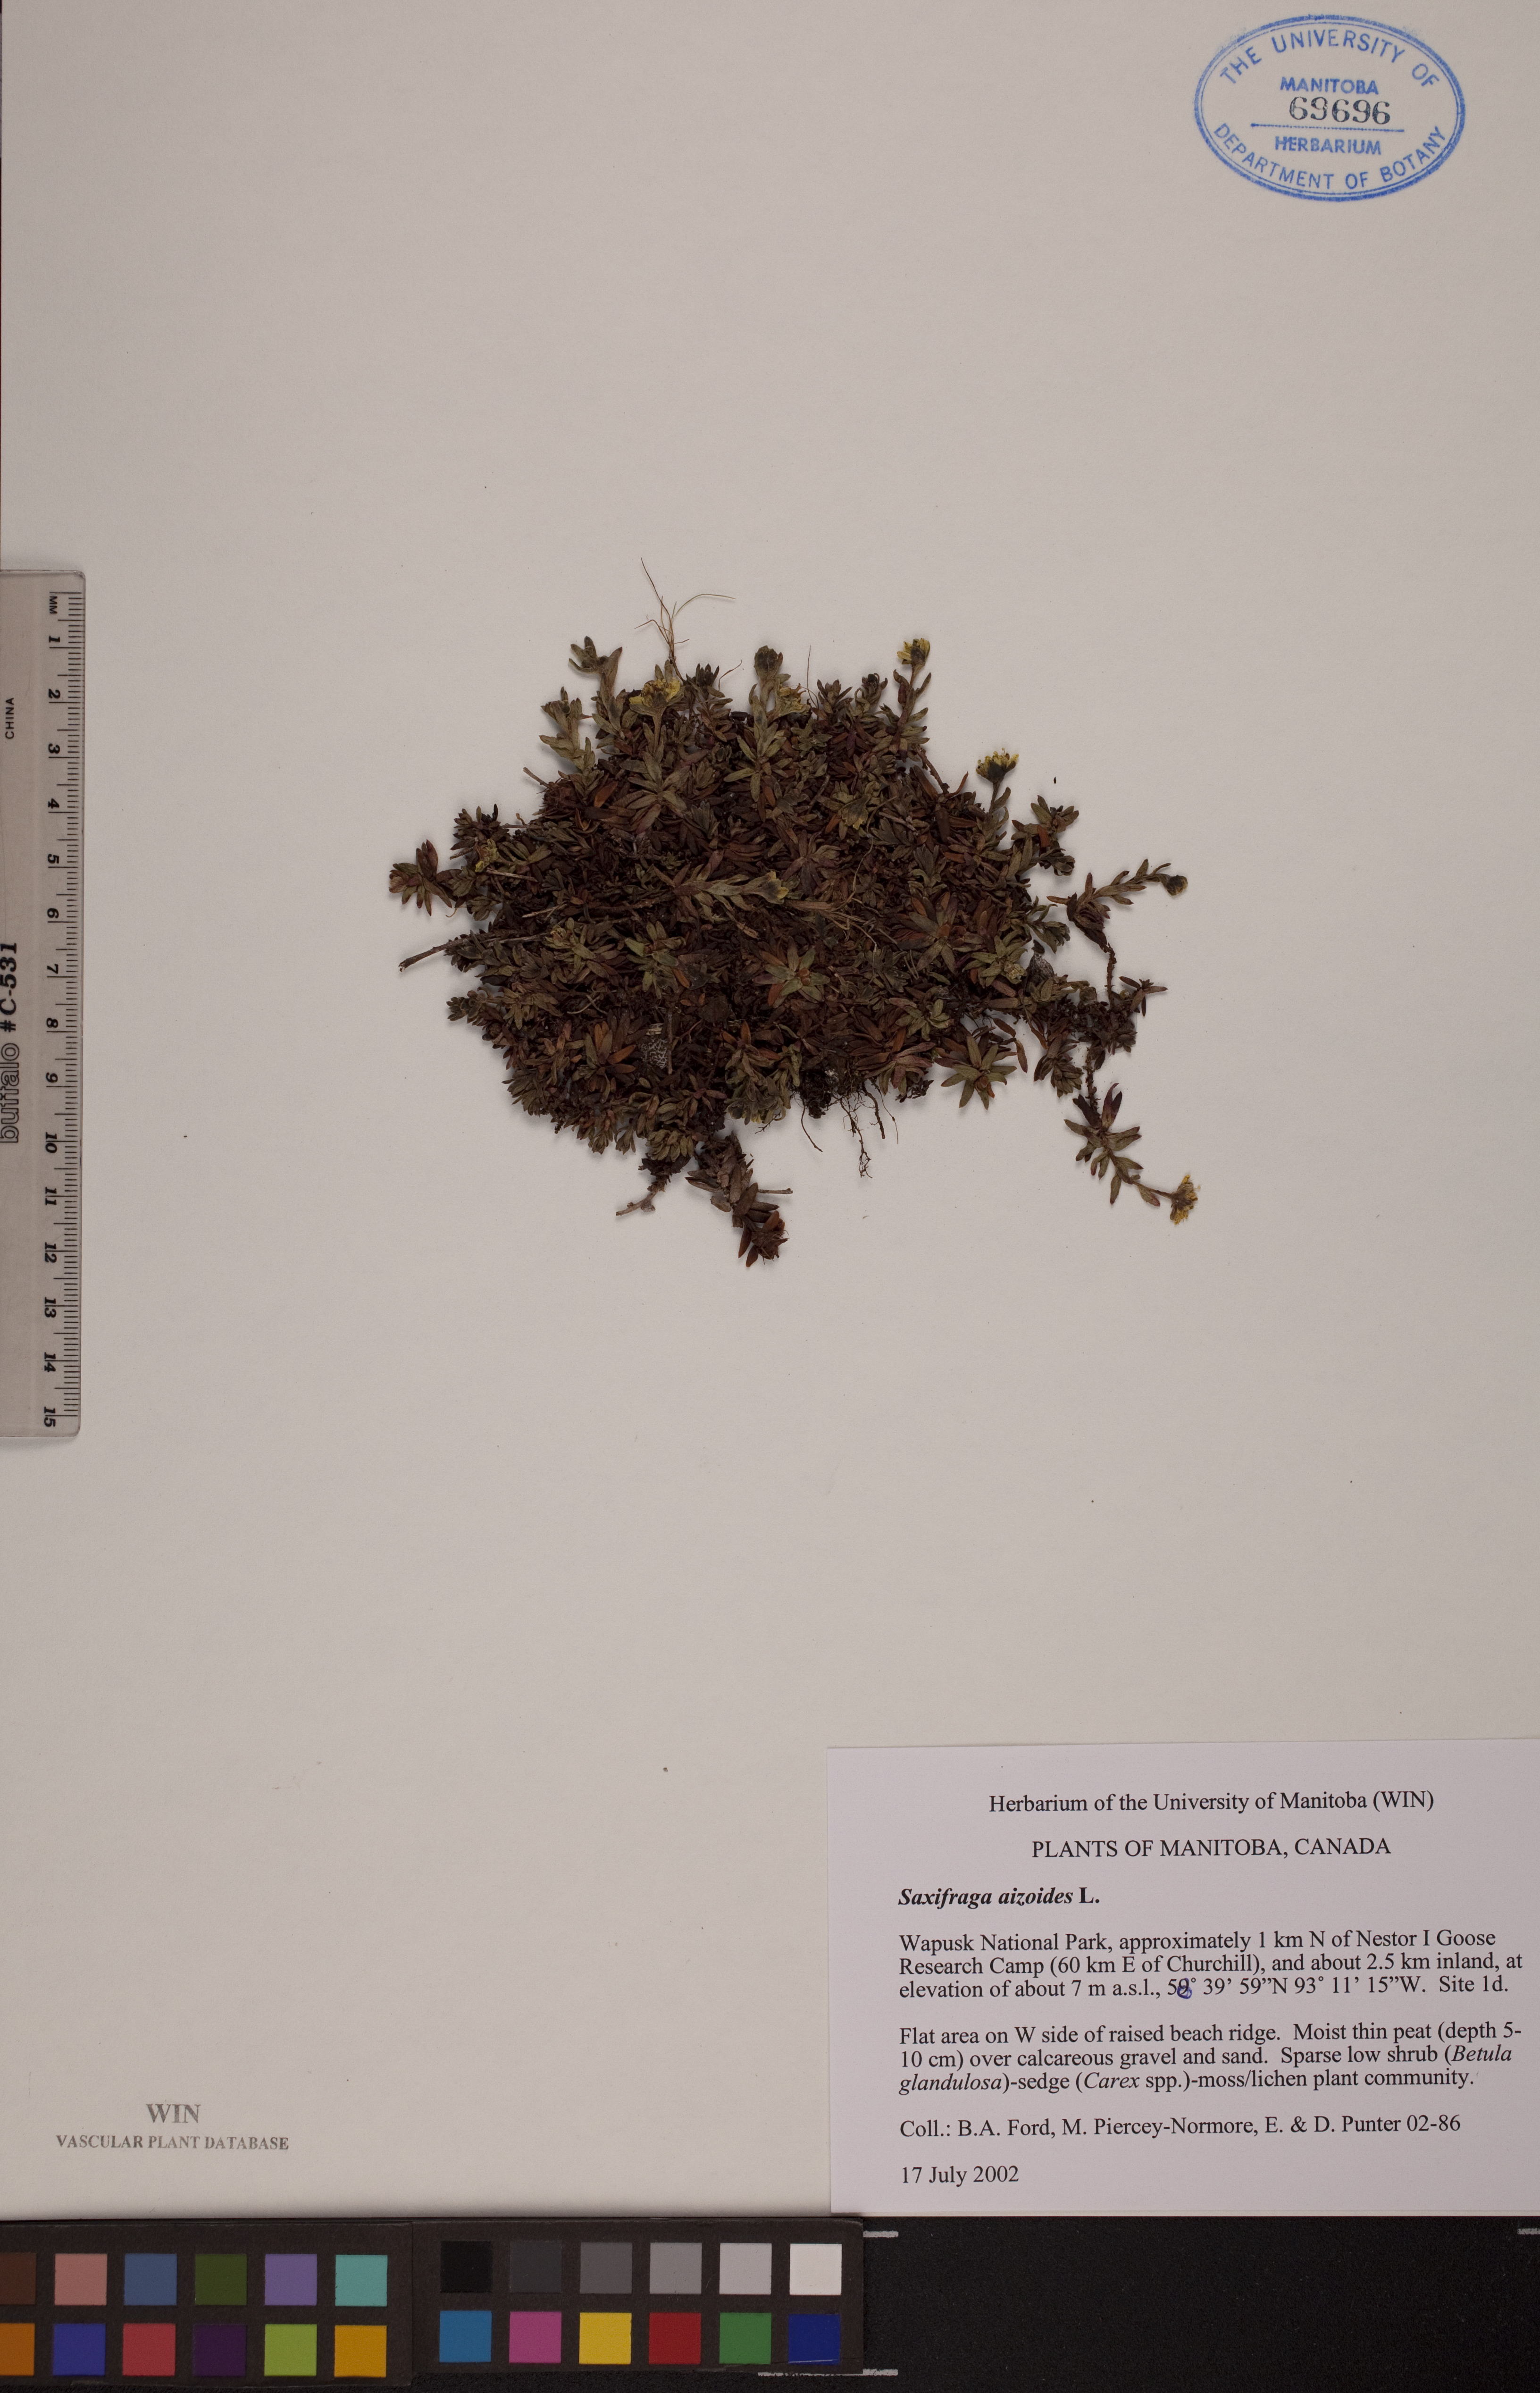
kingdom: Plantae
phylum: Tracheophyta
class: Magnoliopsida
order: Saxifragales
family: Saxifragaceae
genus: Saxifraga
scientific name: Saxifraga aizoides
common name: Yellow mountain saxifrage
